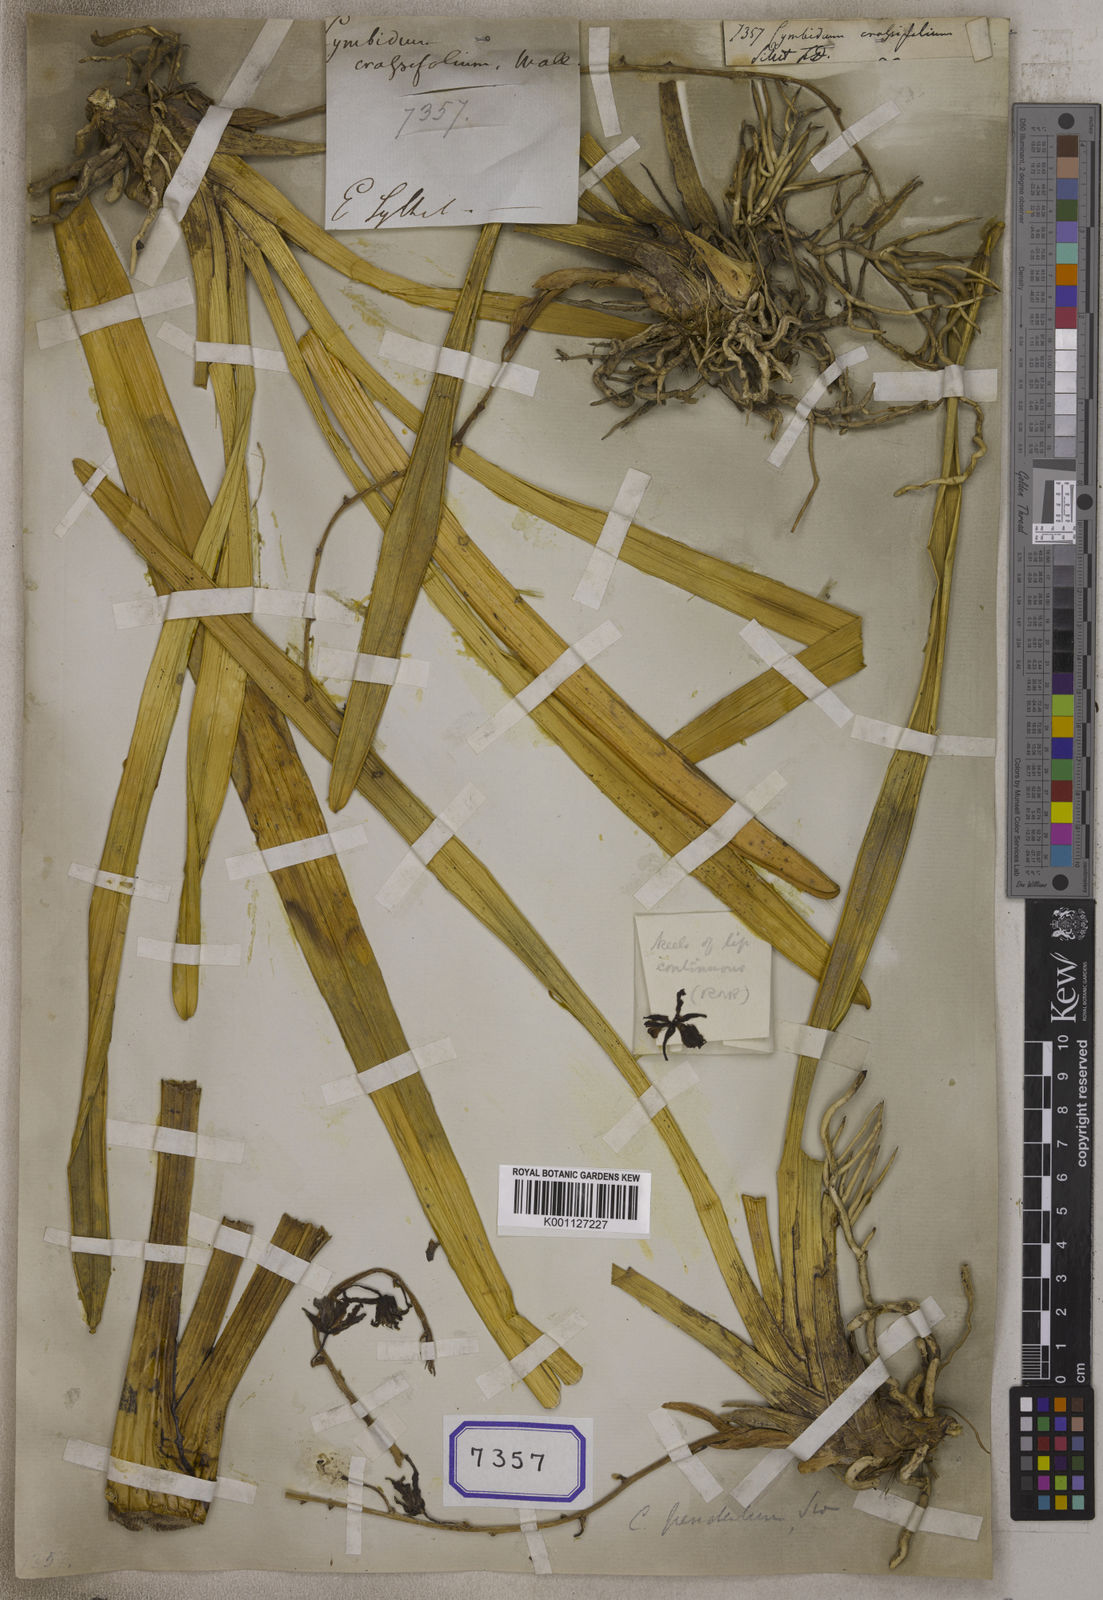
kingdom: Plantae
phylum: Tracheophyta
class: Liliopsida
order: Asparagales
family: Orchidaceae
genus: Cymbidium
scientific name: Cymbidium
